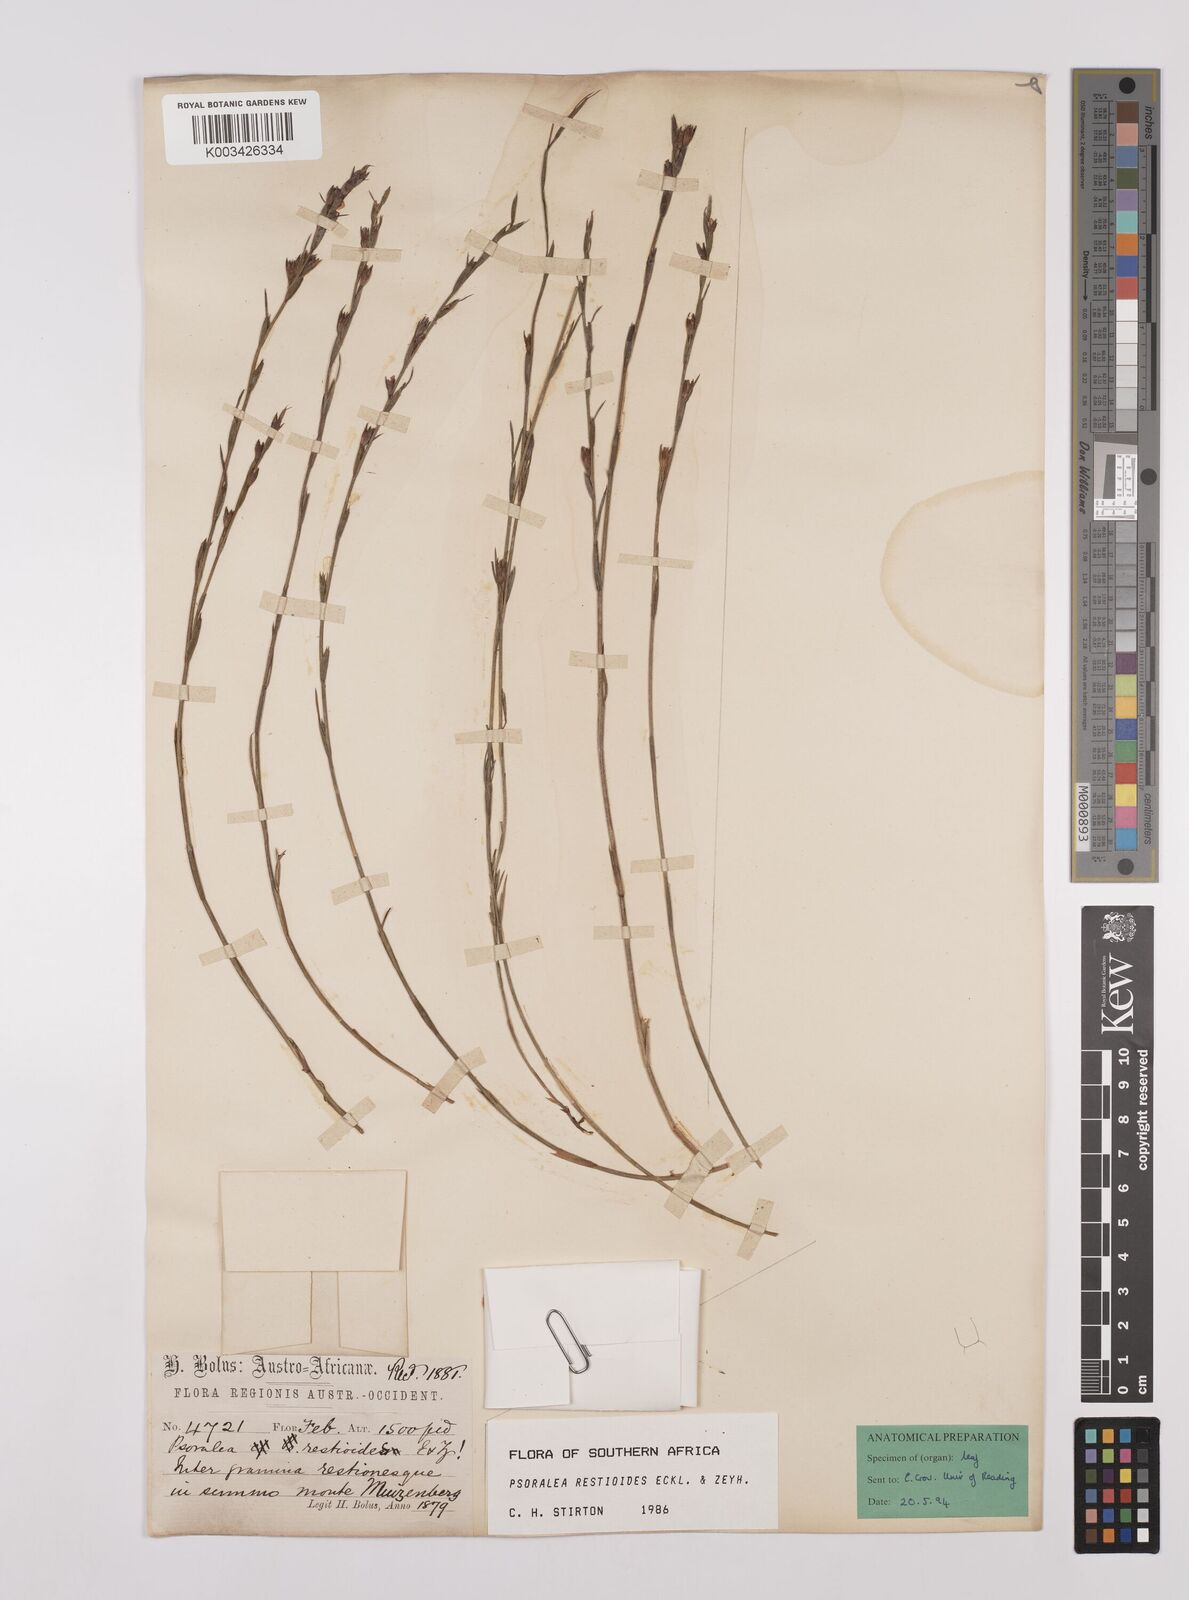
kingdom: Plantae
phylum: Tracheophyta
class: Magnoliopsida
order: Fabales
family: Fabaceae
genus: Psoralea
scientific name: Psoralea restioides
